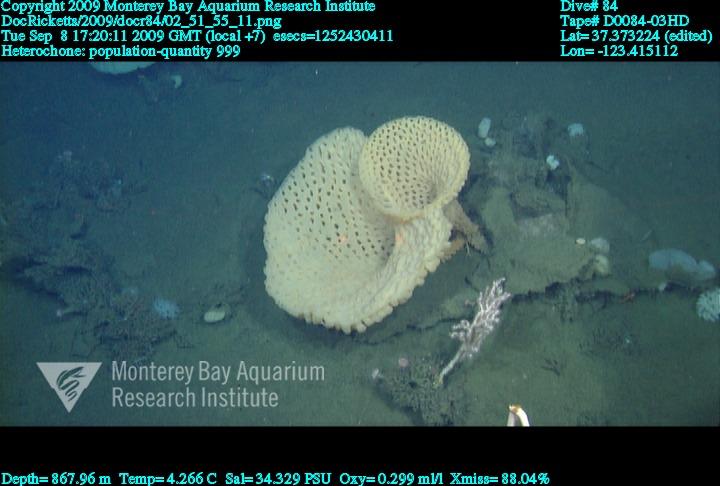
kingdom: Animalia
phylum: Porifera
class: Hexactinellida
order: Sceptrulophora
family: Aphrocallistidae
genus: Heterochone
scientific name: Heterochone
